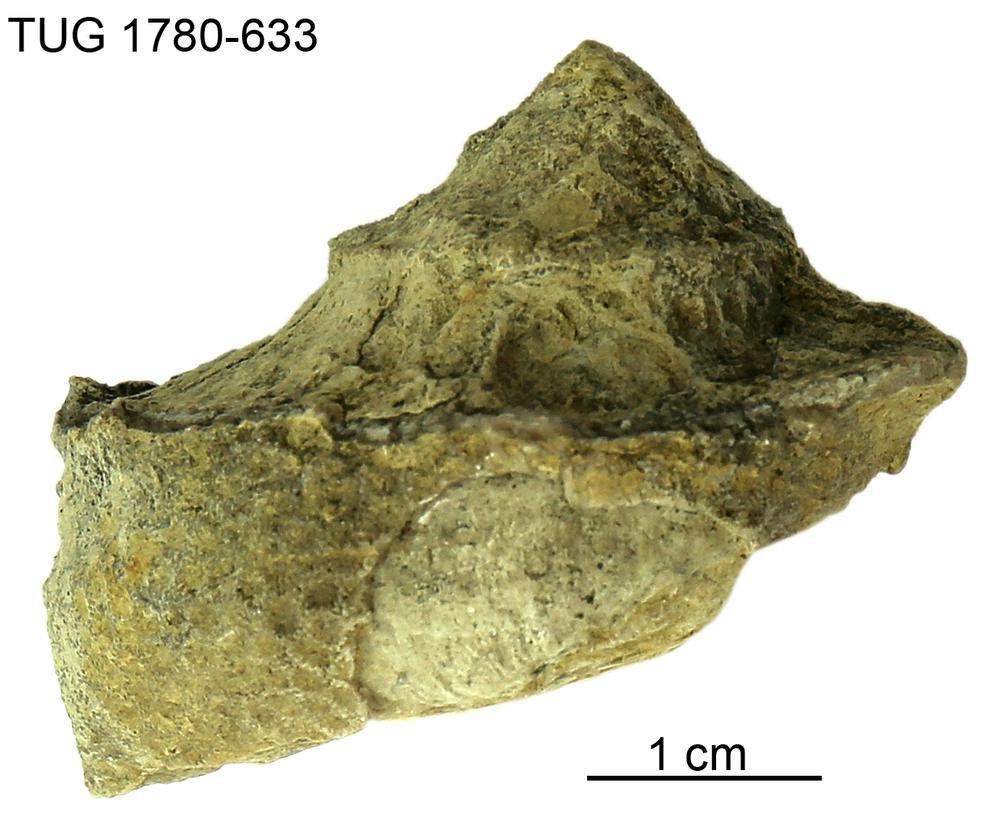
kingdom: Animalia
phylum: Mollusca
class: Gastropoda
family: Lophospiridae
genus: Ruedemannia
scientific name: Ruedemannia Worthenia borkholmiensis
